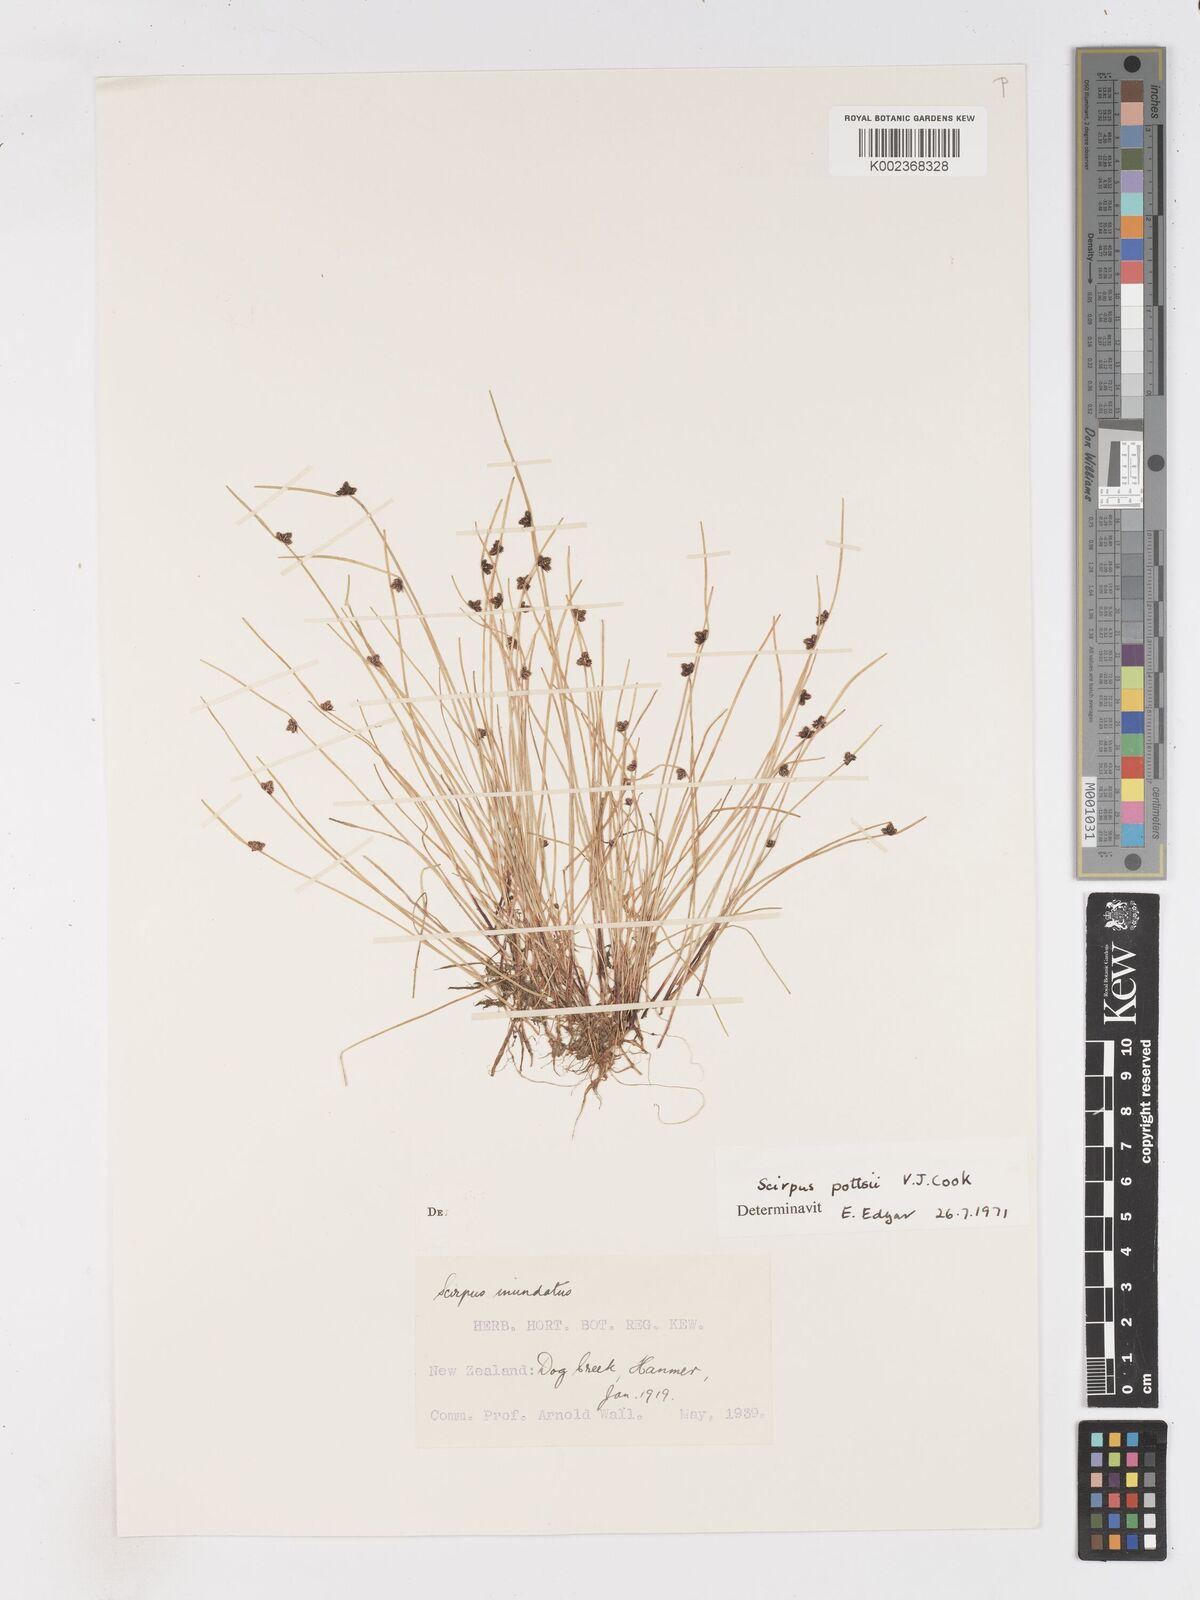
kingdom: Plantae
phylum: Tracheophyta
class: Liliopsida
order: Poales
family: Cyperaceae
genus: Isolepis
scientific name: Isolepis pottsii
